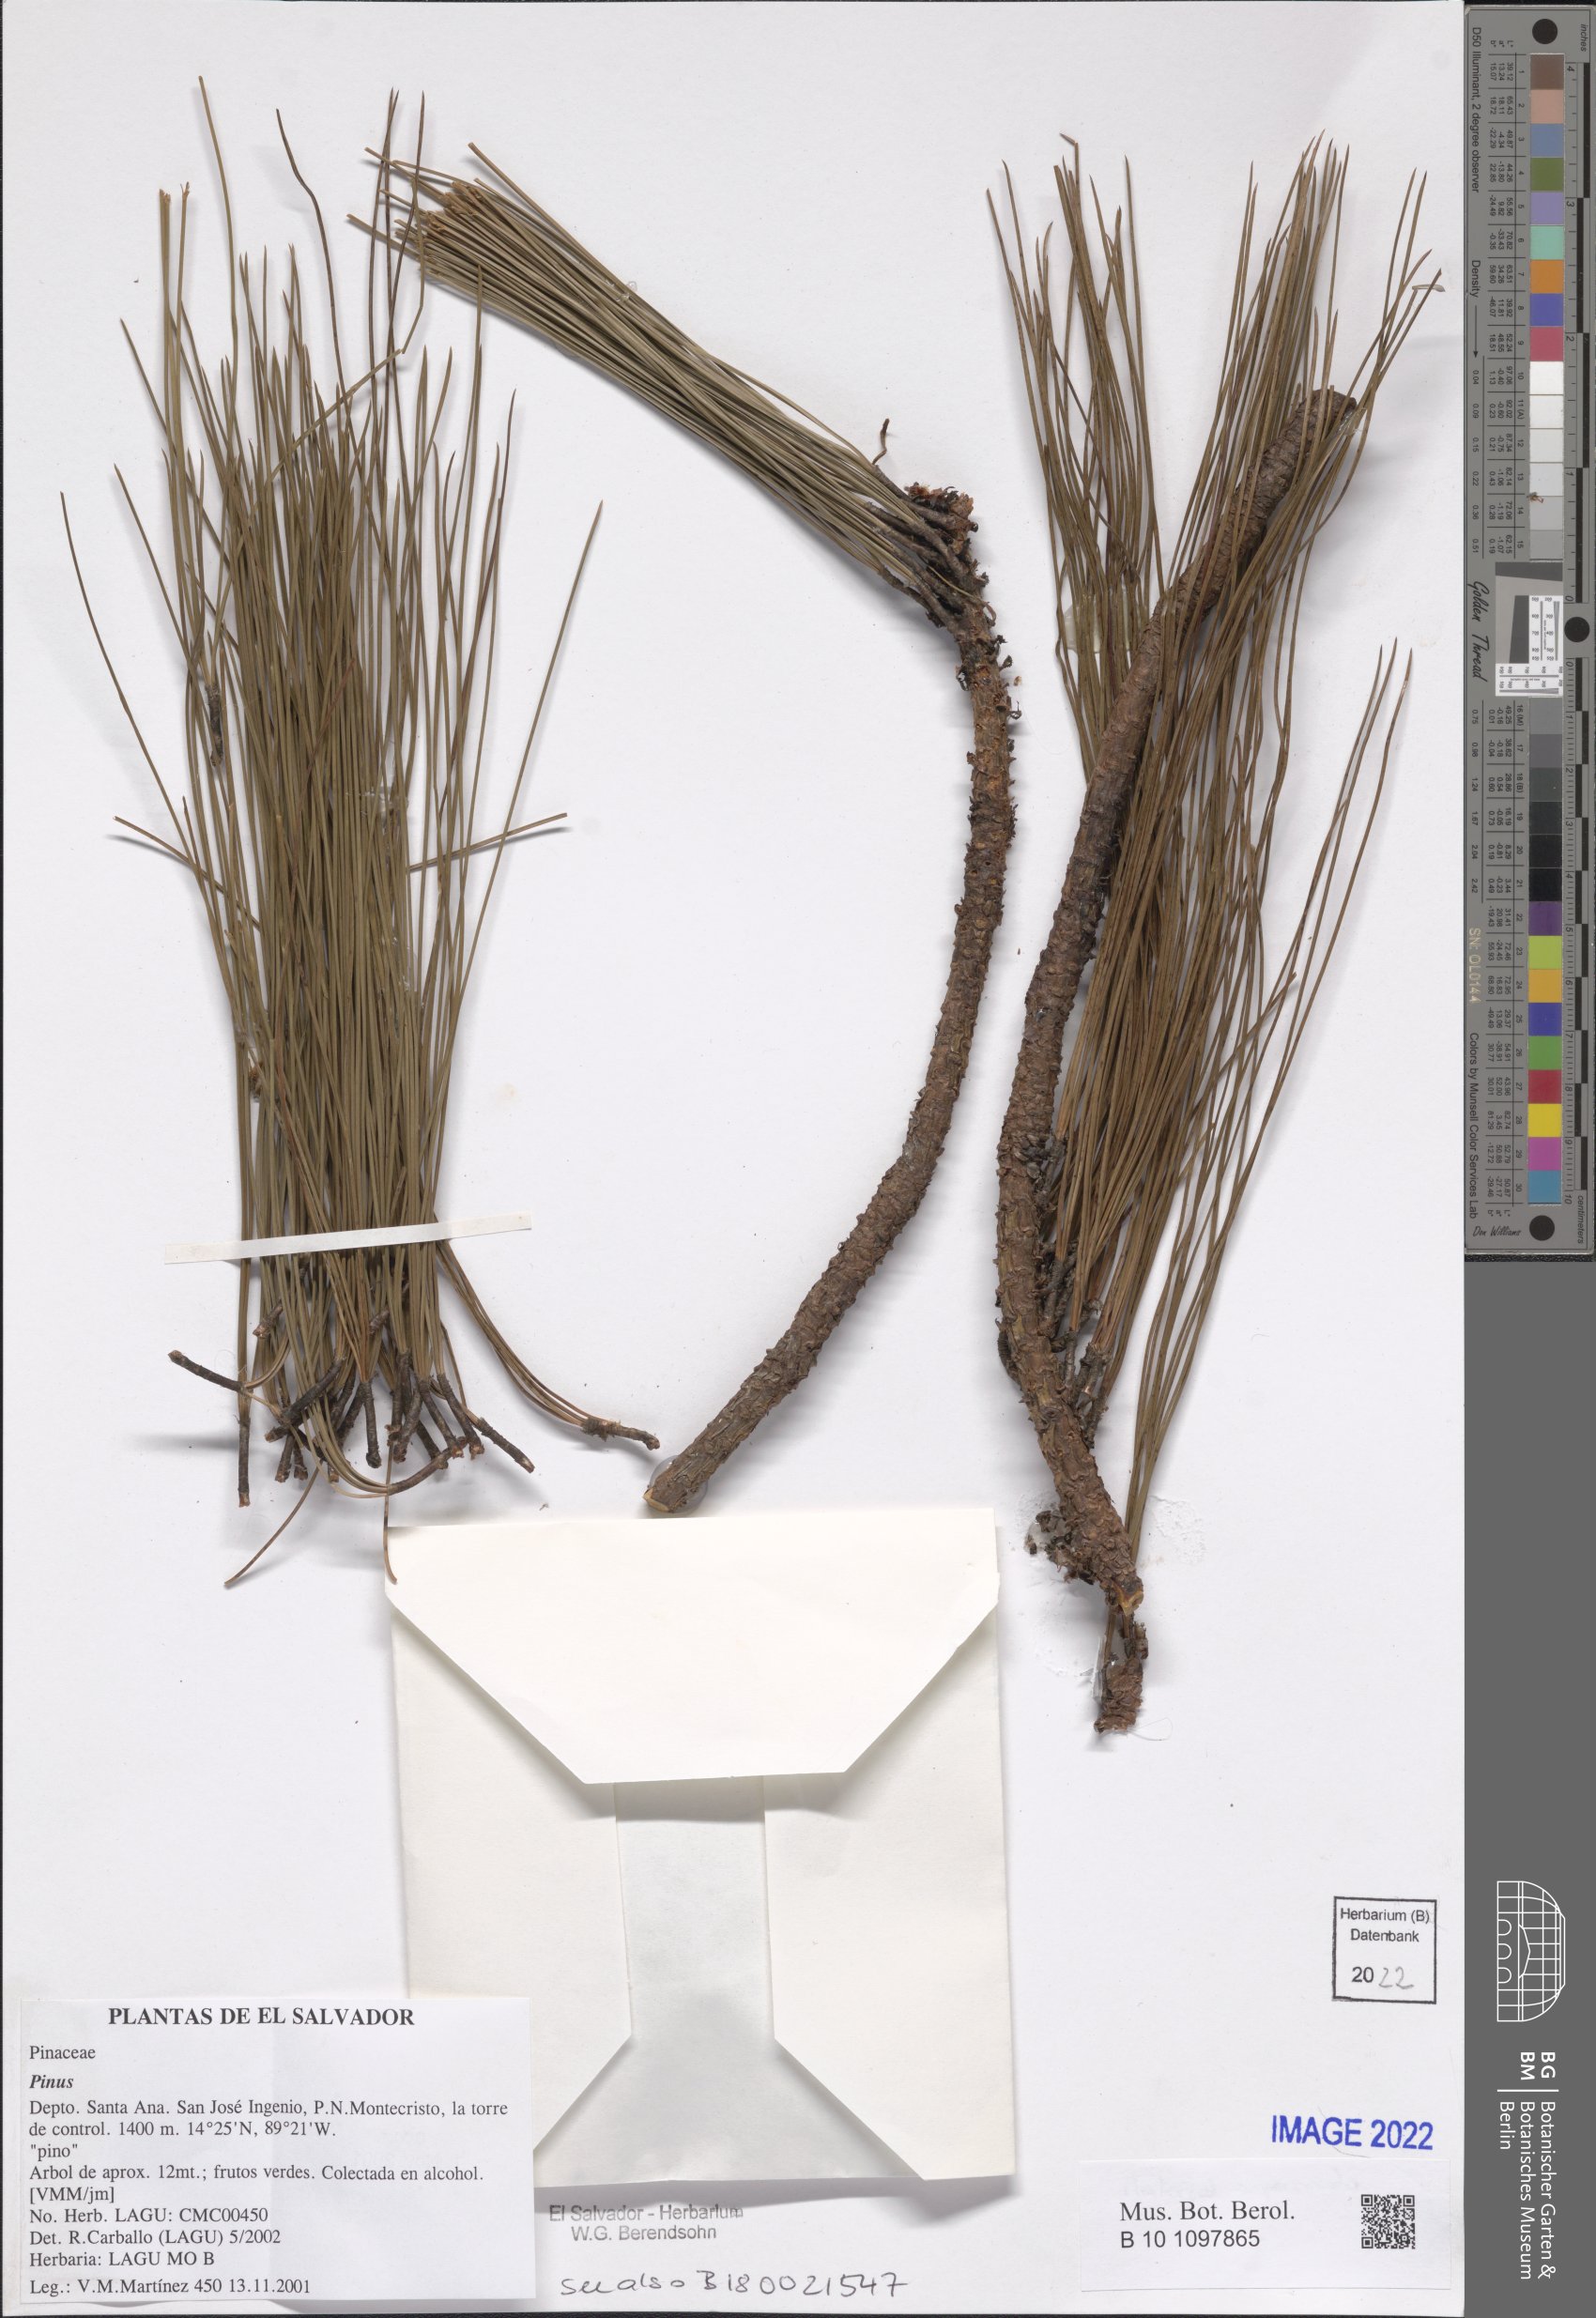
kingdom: Plantae
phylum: Tracheophyta
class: Pinopsida
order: Pinales
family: Pinaceae
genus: Pinus
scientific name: Pinus
